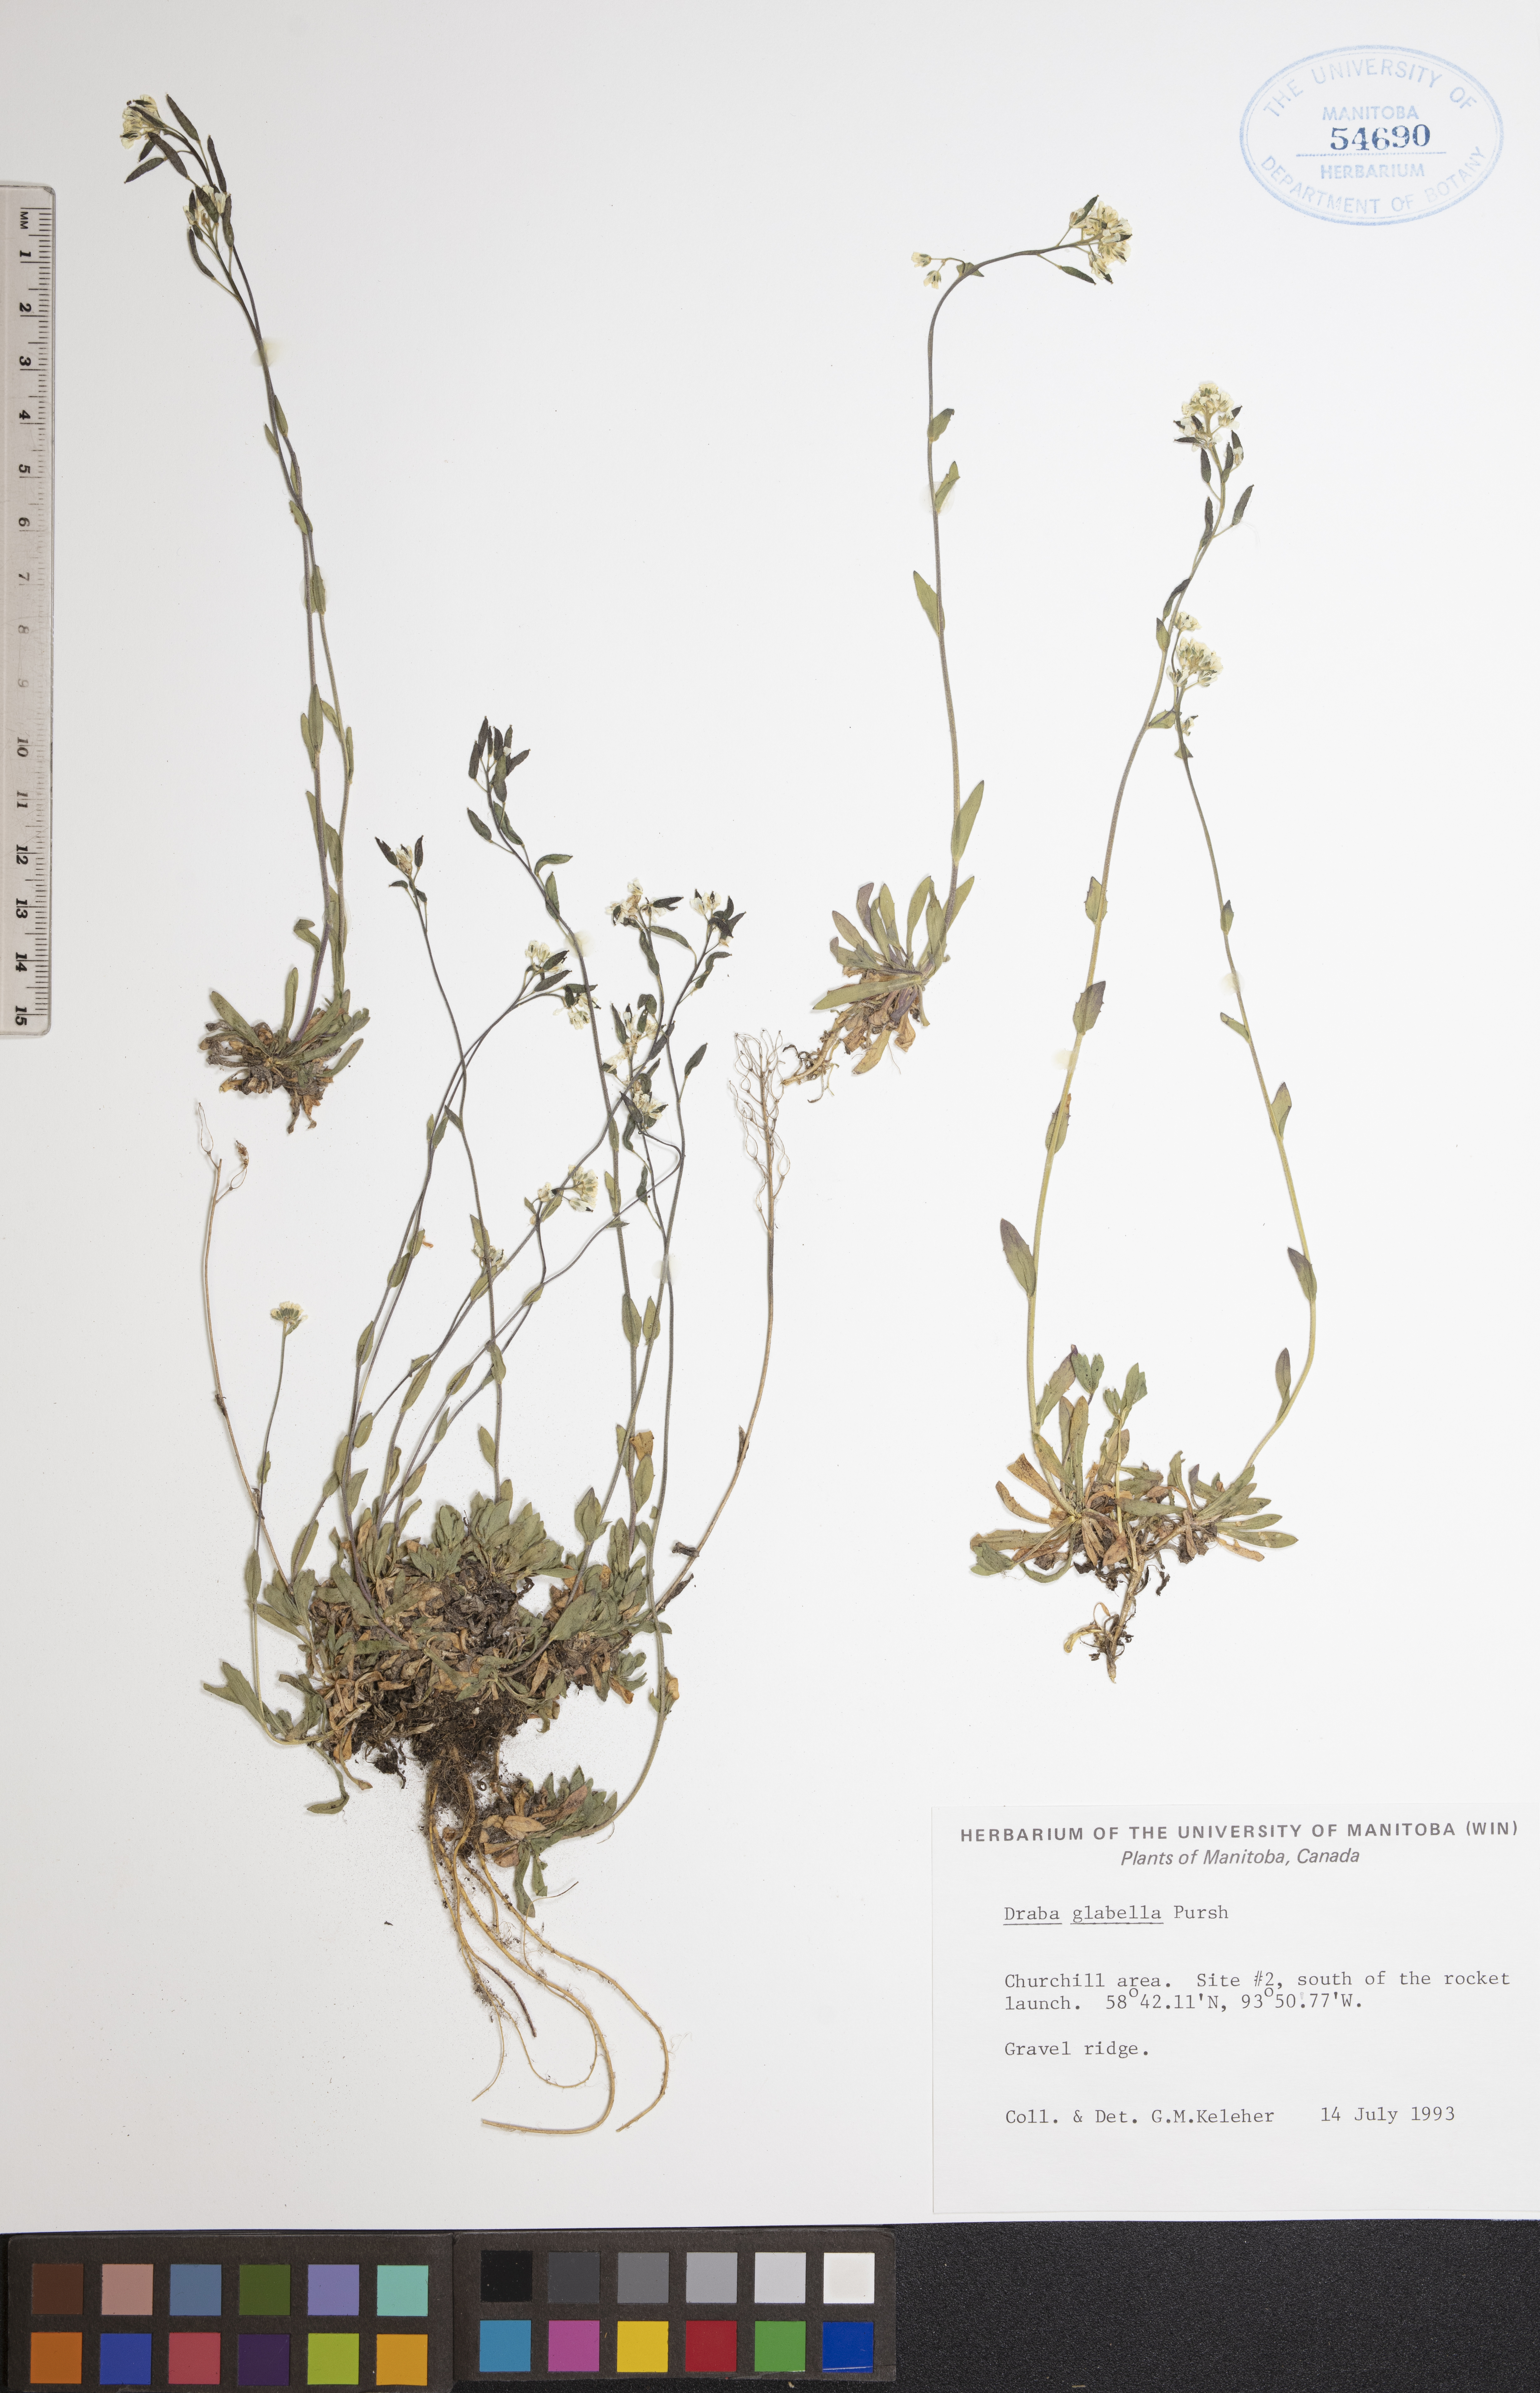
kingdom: Plantae
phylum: Tracheophyta
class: Magnoliopsida
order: Brassicales
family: Brassicaceae
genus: Draba
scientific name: Draba glabella
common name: Glaucous draba
